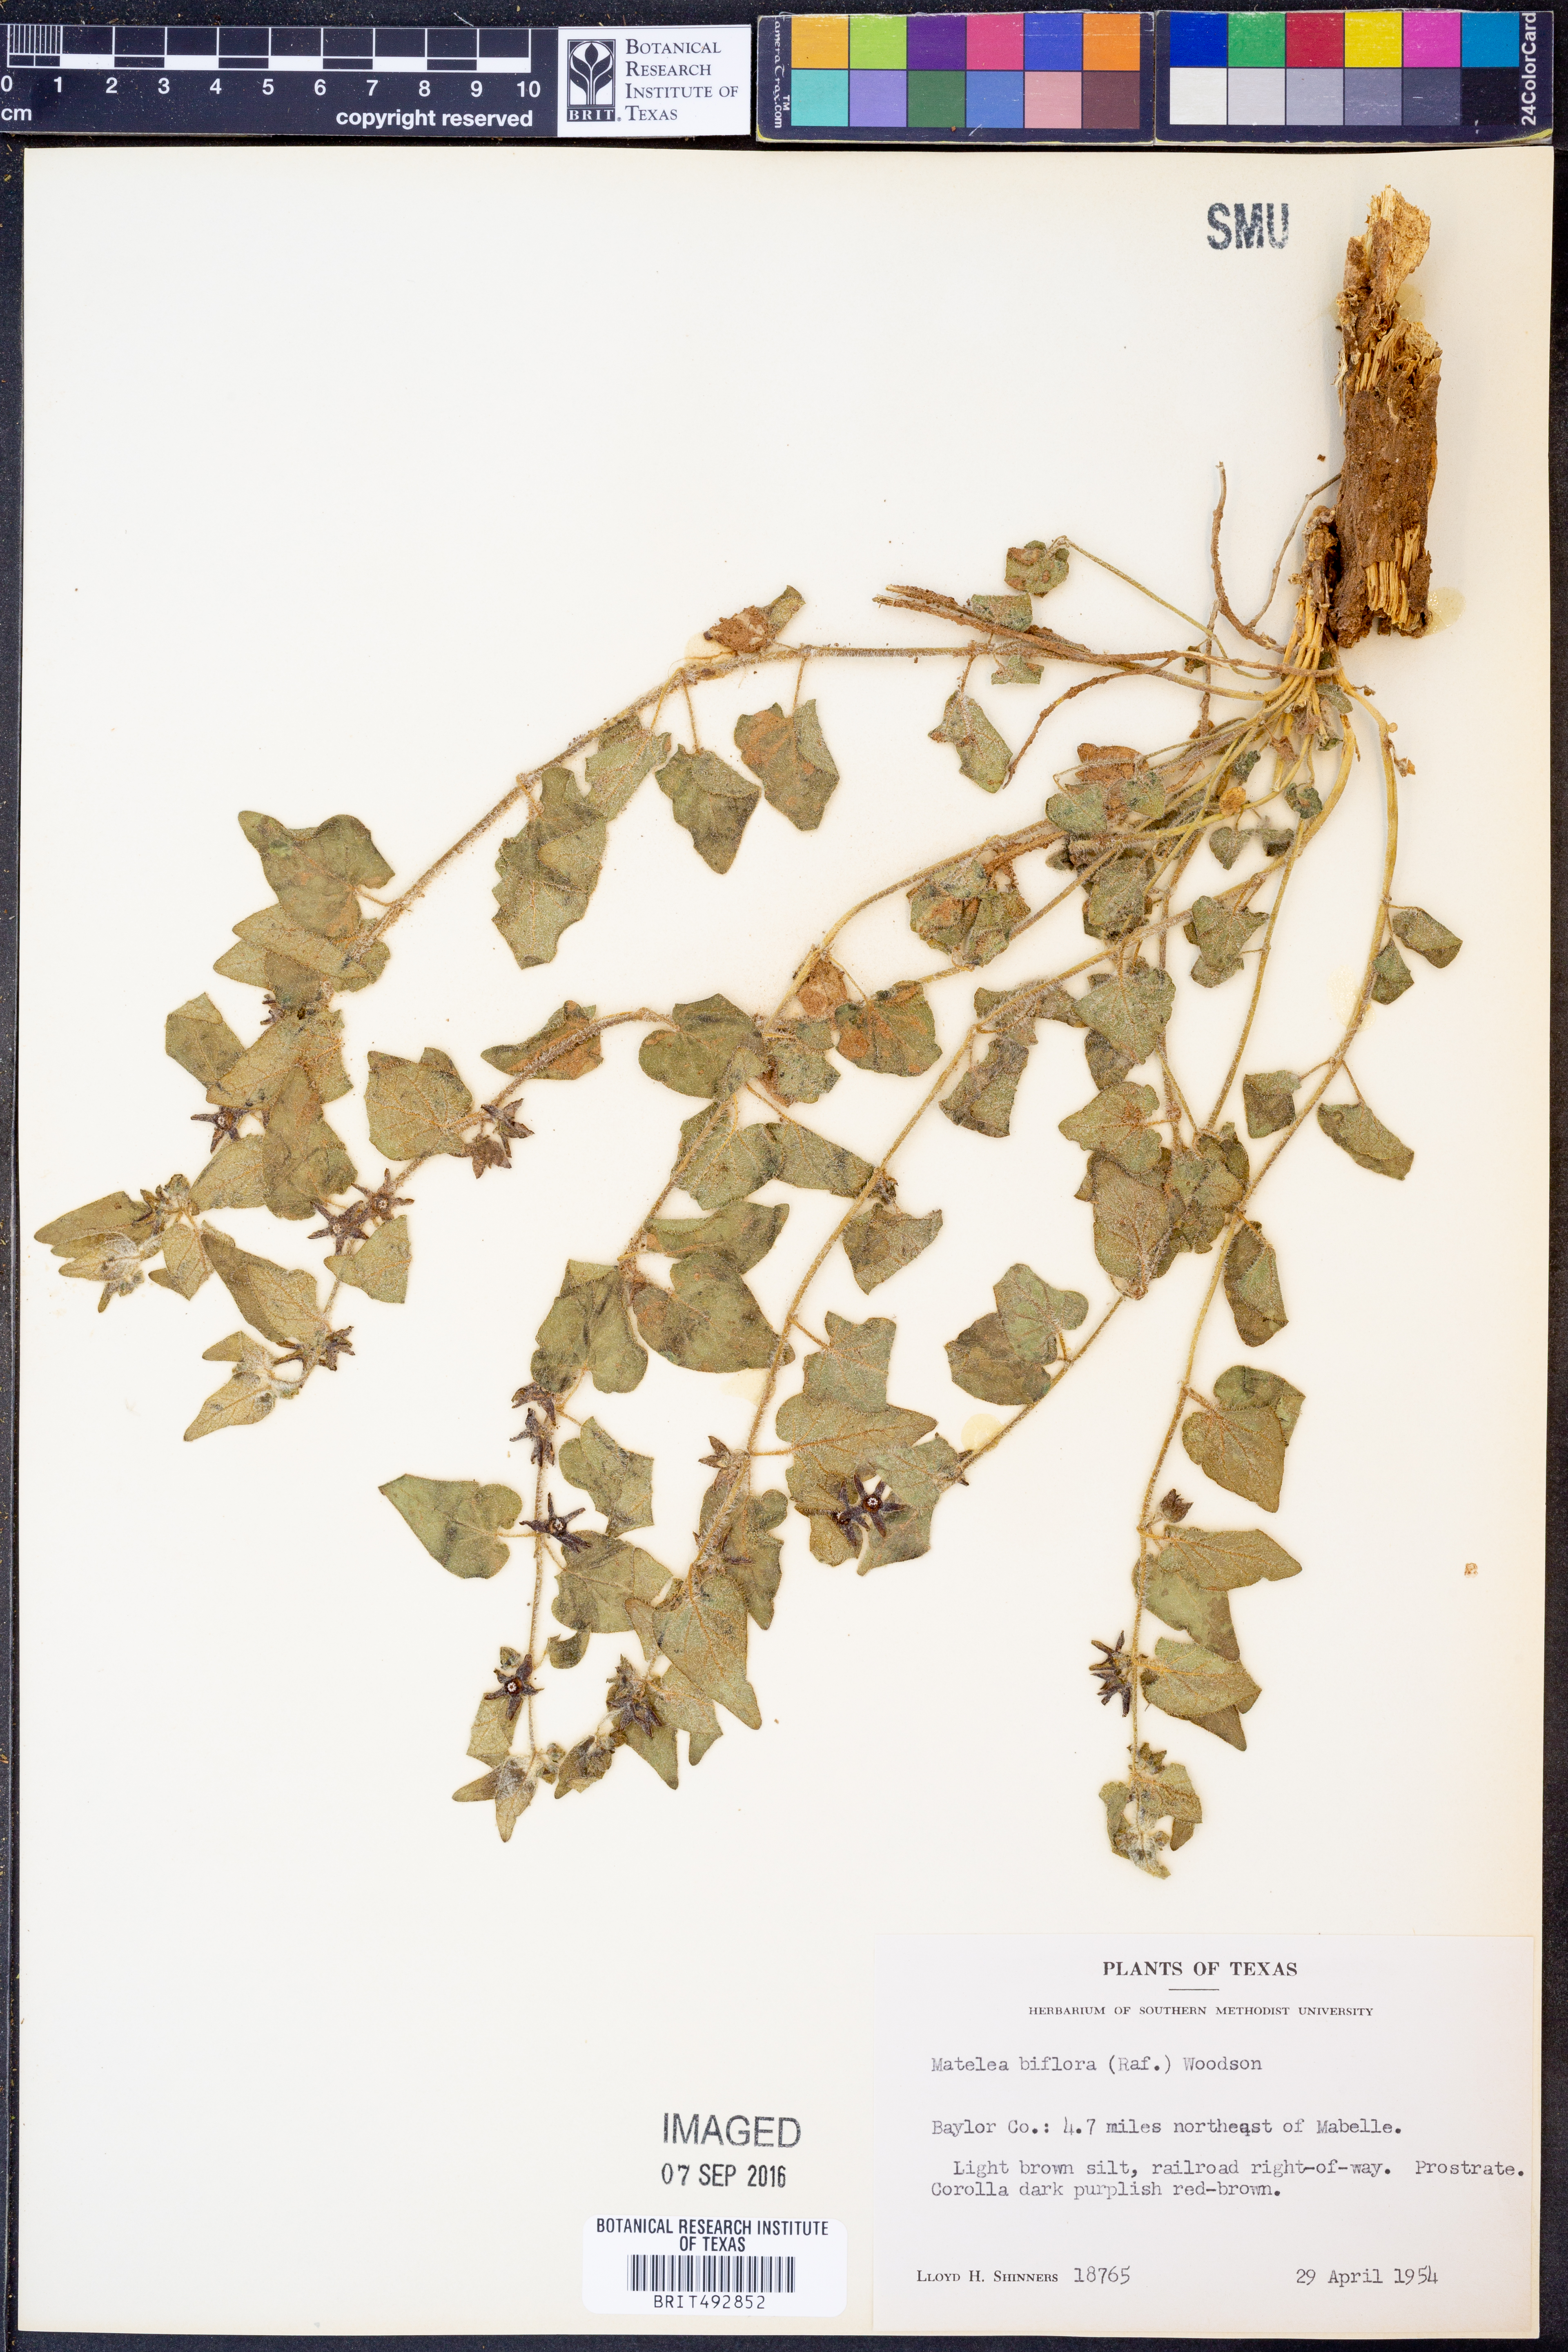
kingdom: Plantae
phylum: Tracheophyta
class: Magnoliopsida
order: Gentianales
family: Apocynaceae
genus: Chthamalia
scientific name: Chthamalia biflora
